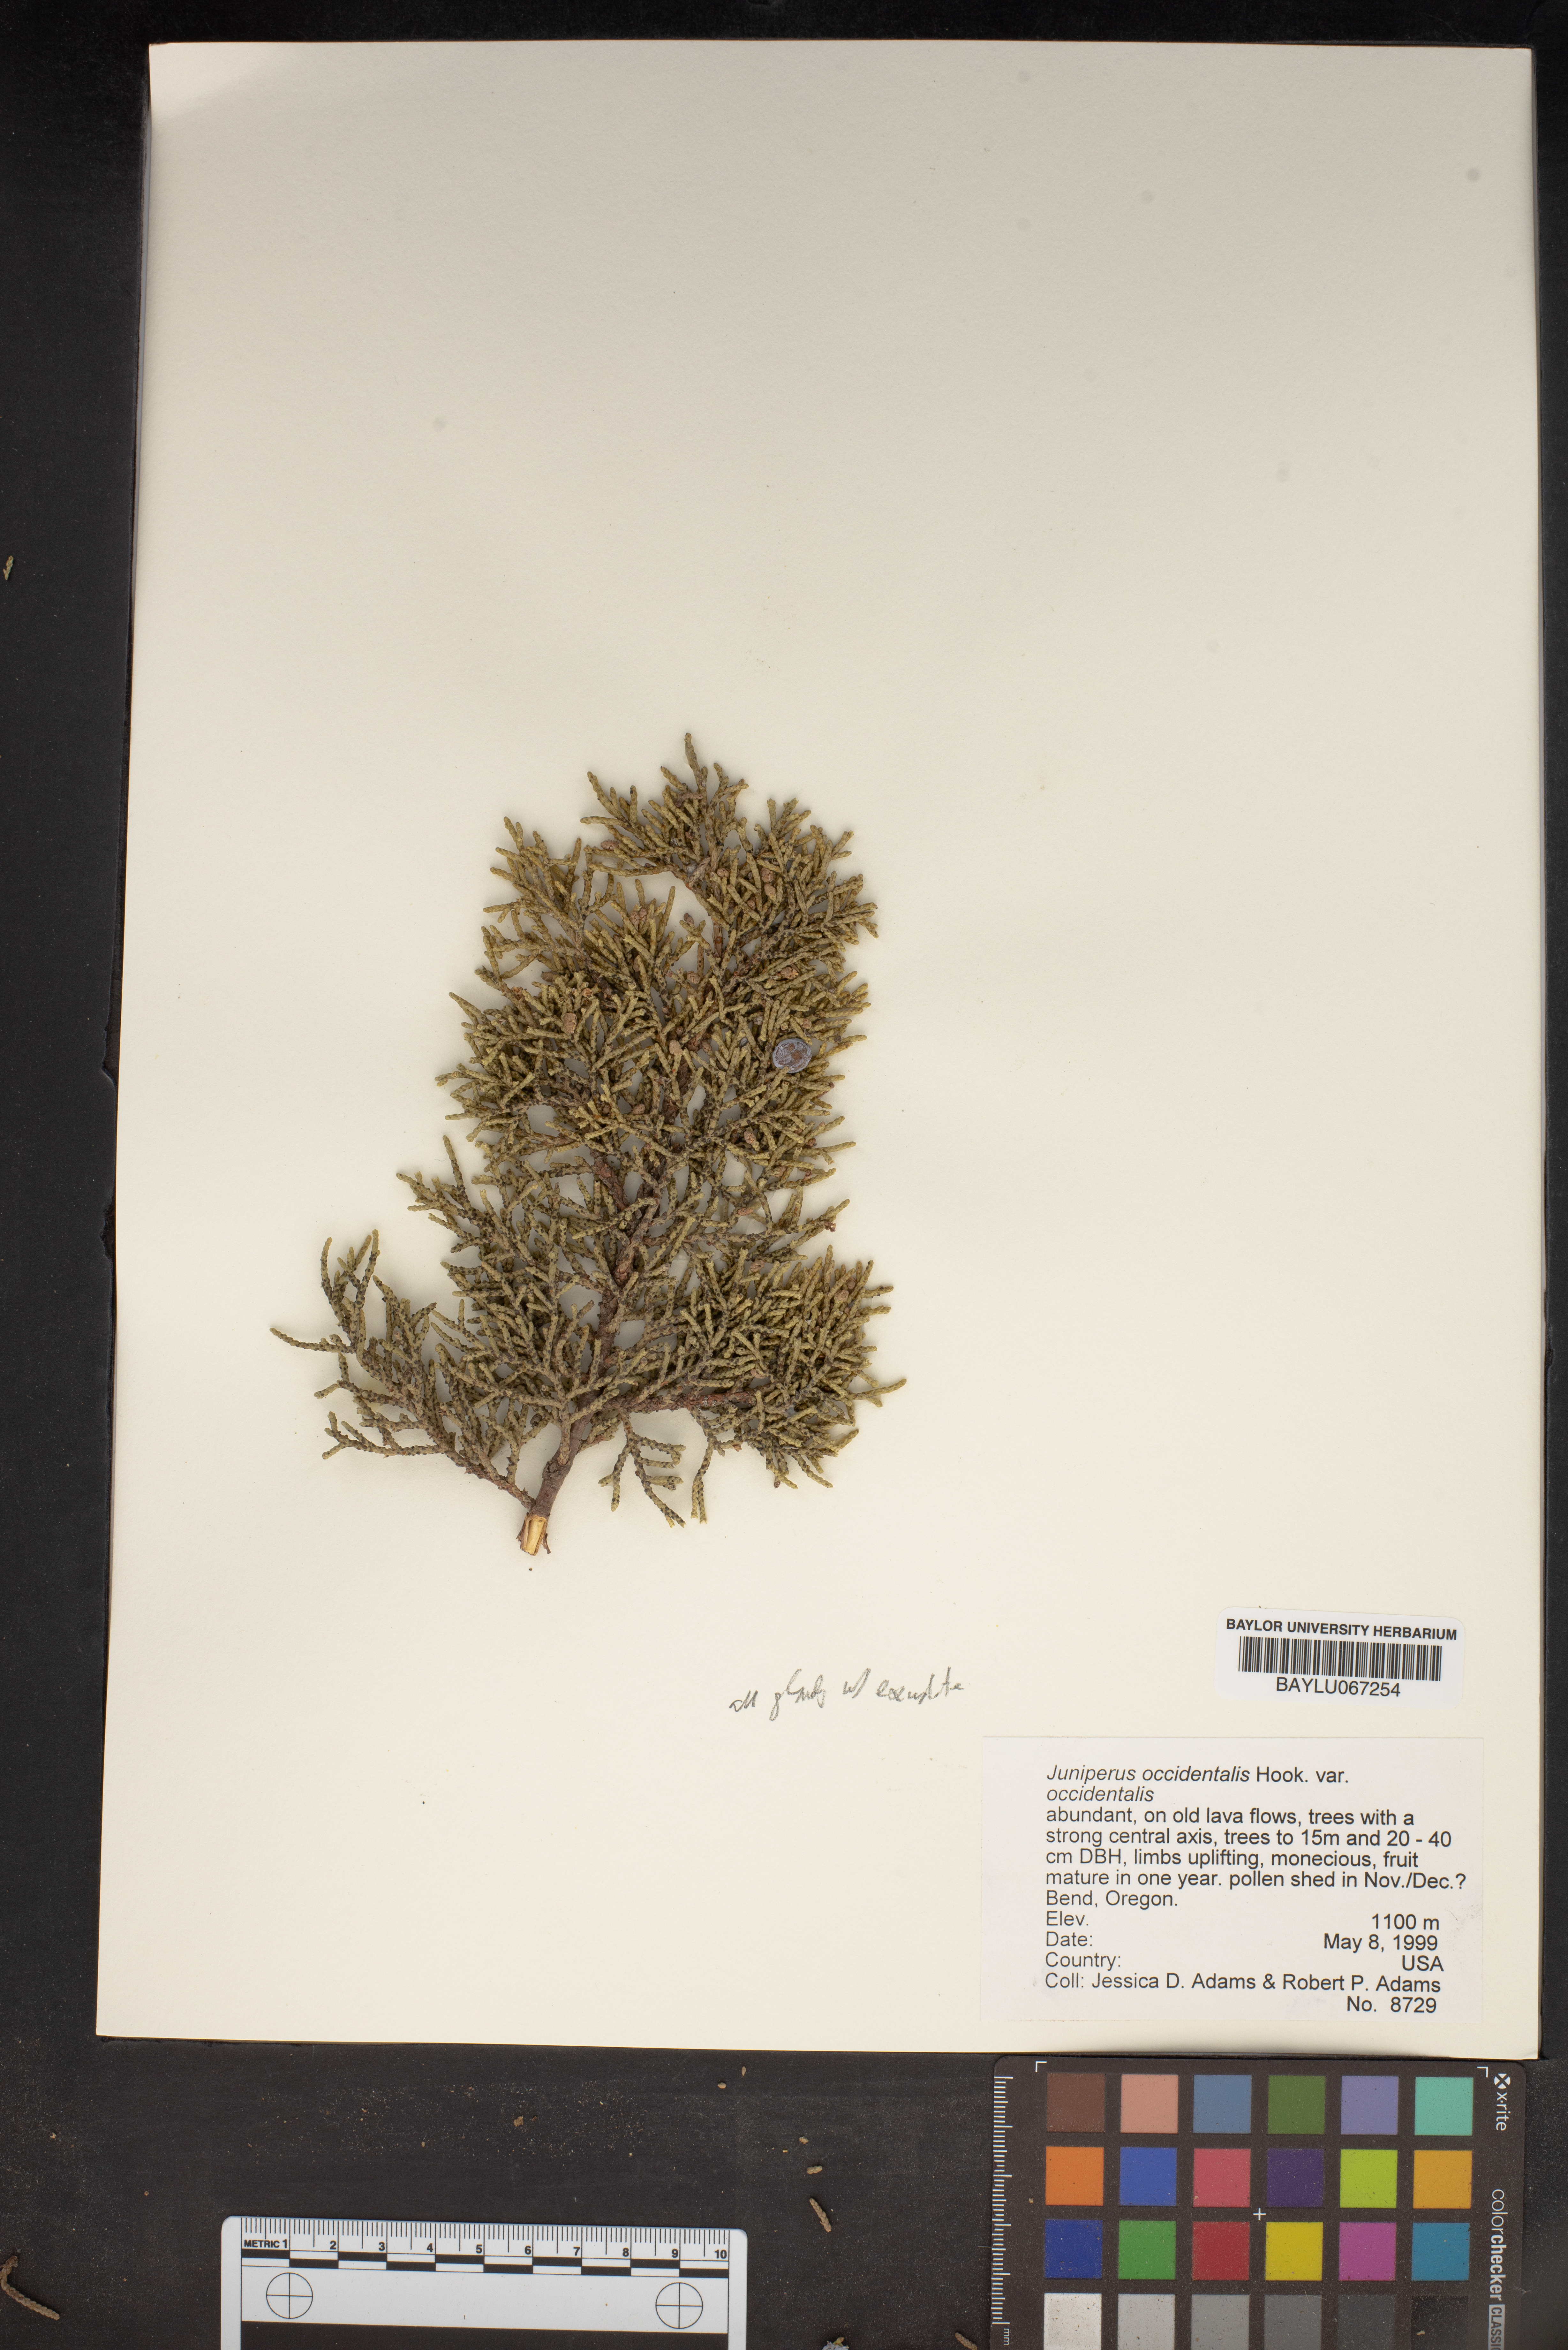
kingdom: Plantae
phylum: Tracheophyta
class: Pinopsida
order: Pinales
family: Cupressaceae
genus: Juniperus
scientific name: Juniperus occidentalis
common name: Western juniper
